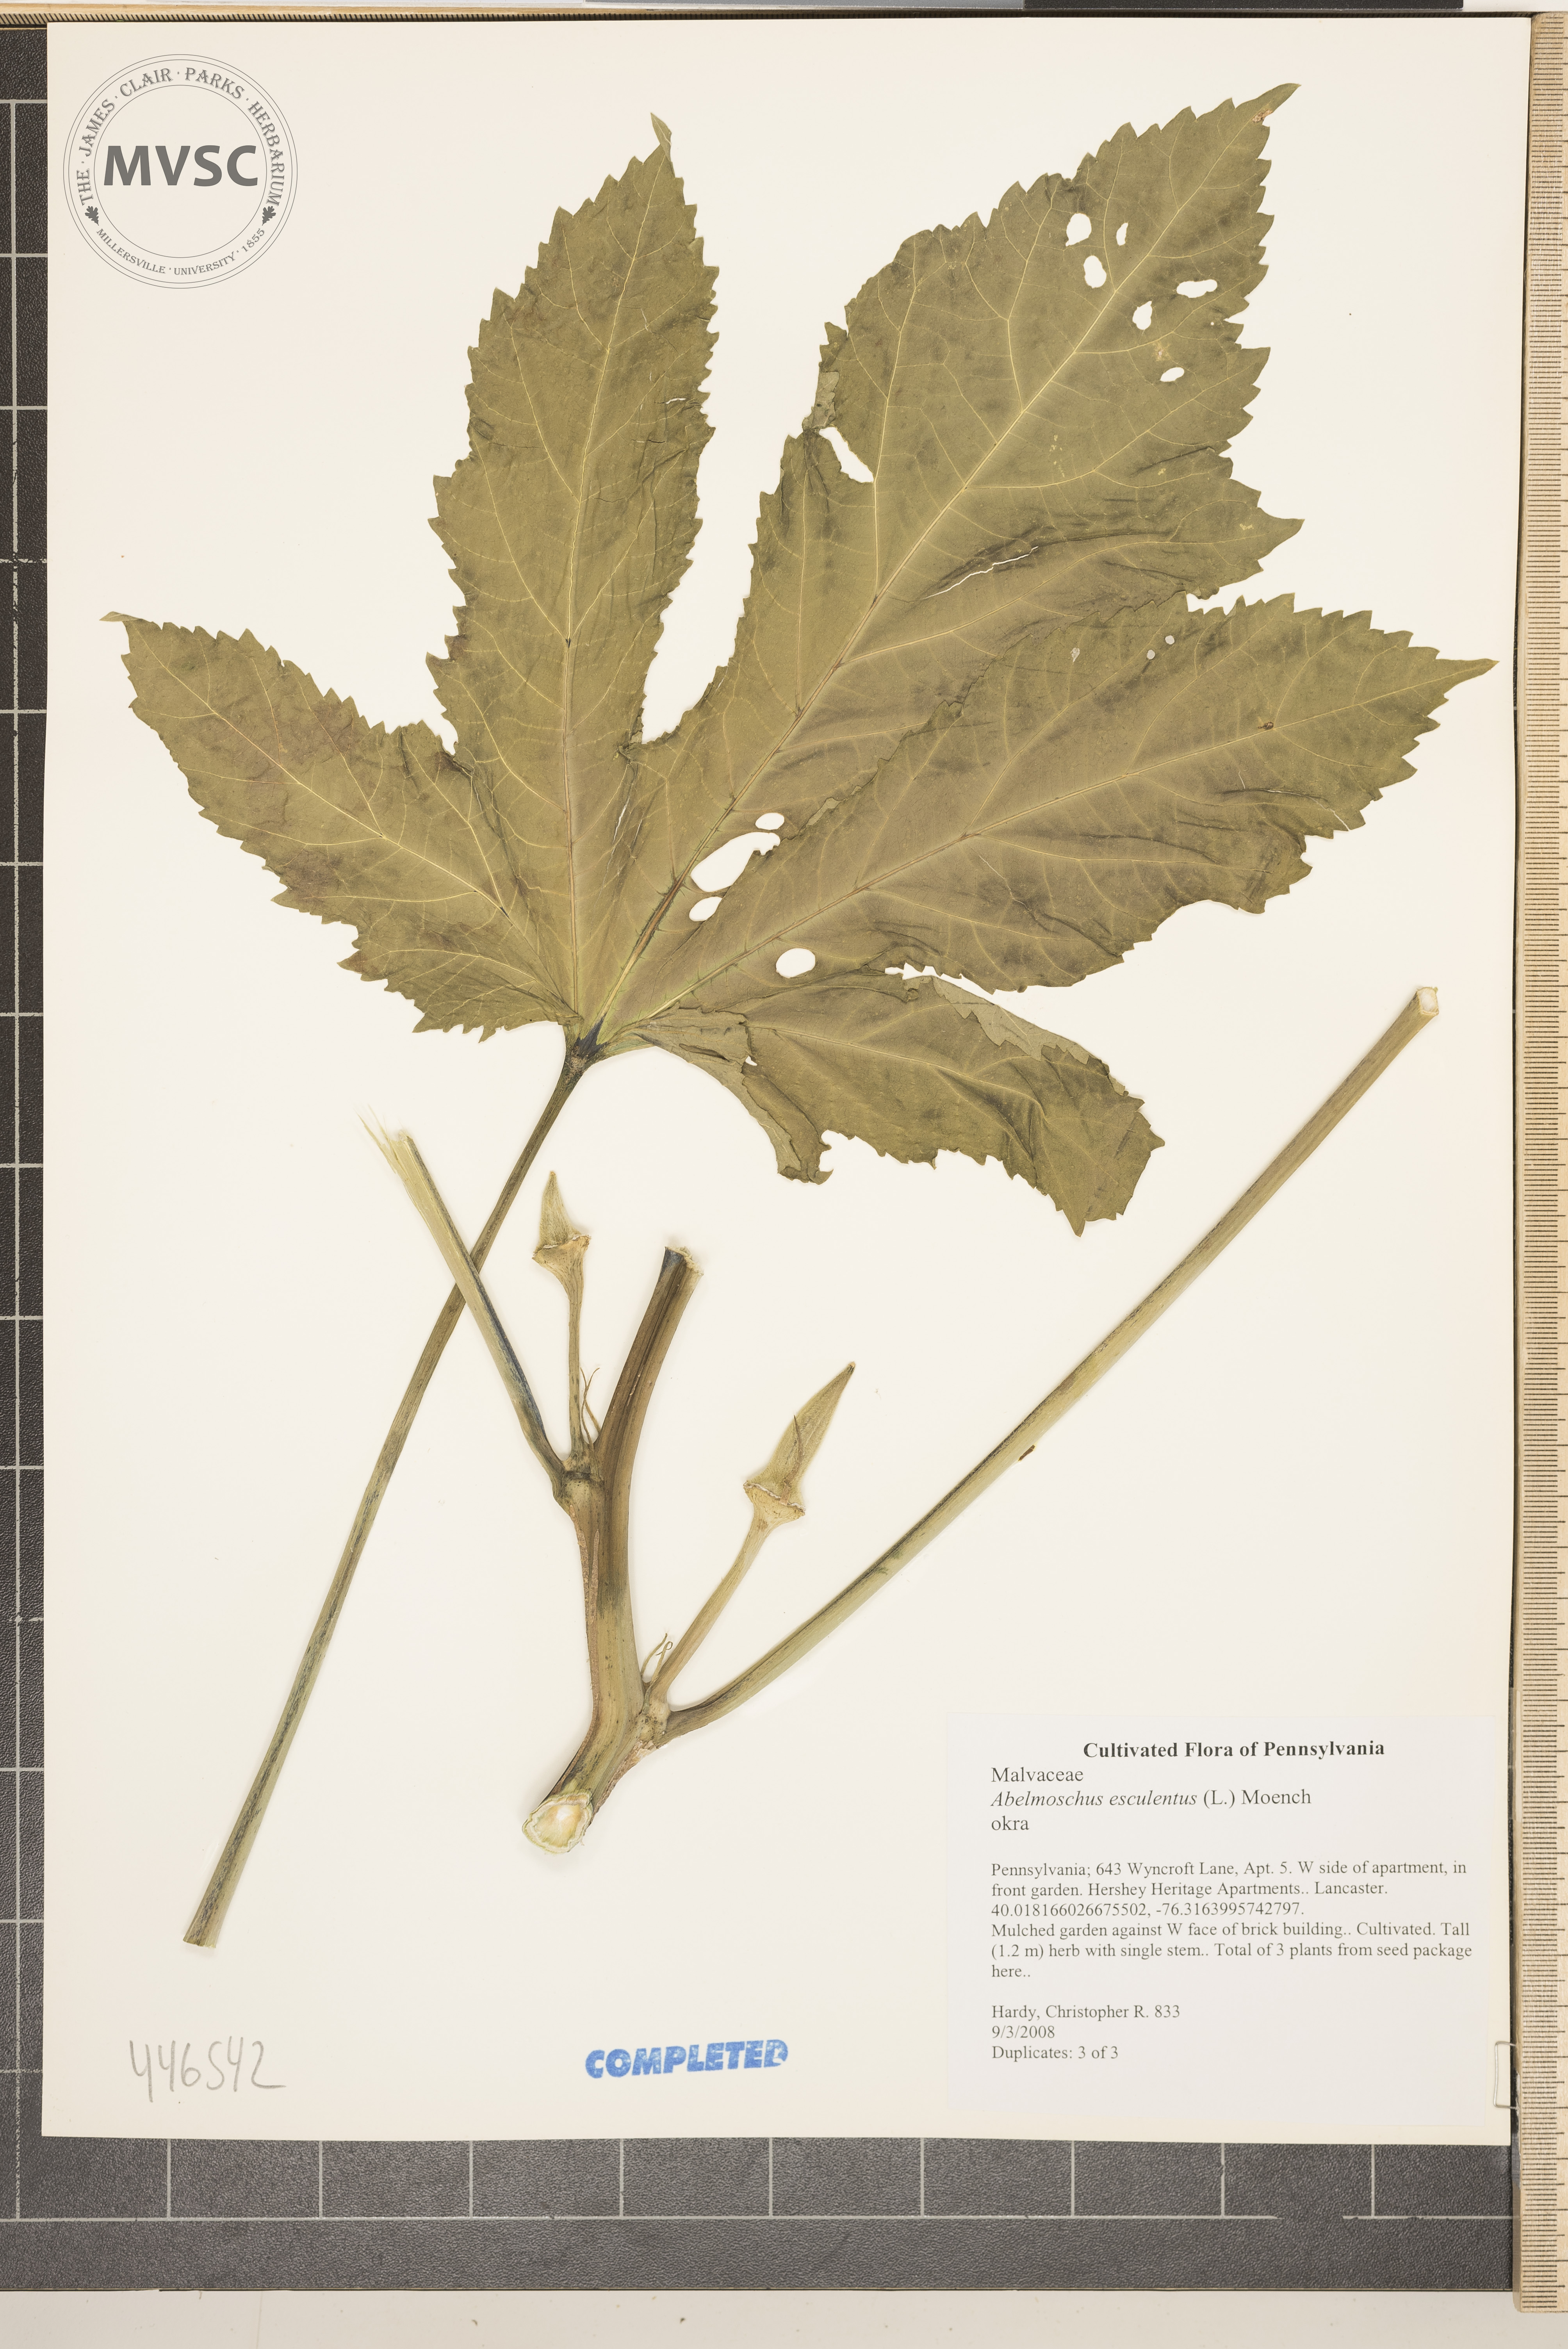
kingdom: Plantae
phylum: Tracheophyta
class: Magnoliopsida
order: Malvales
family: Malvaceae
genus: Abelmoschus
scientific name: Abelmoschus esculentus
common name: Okra
